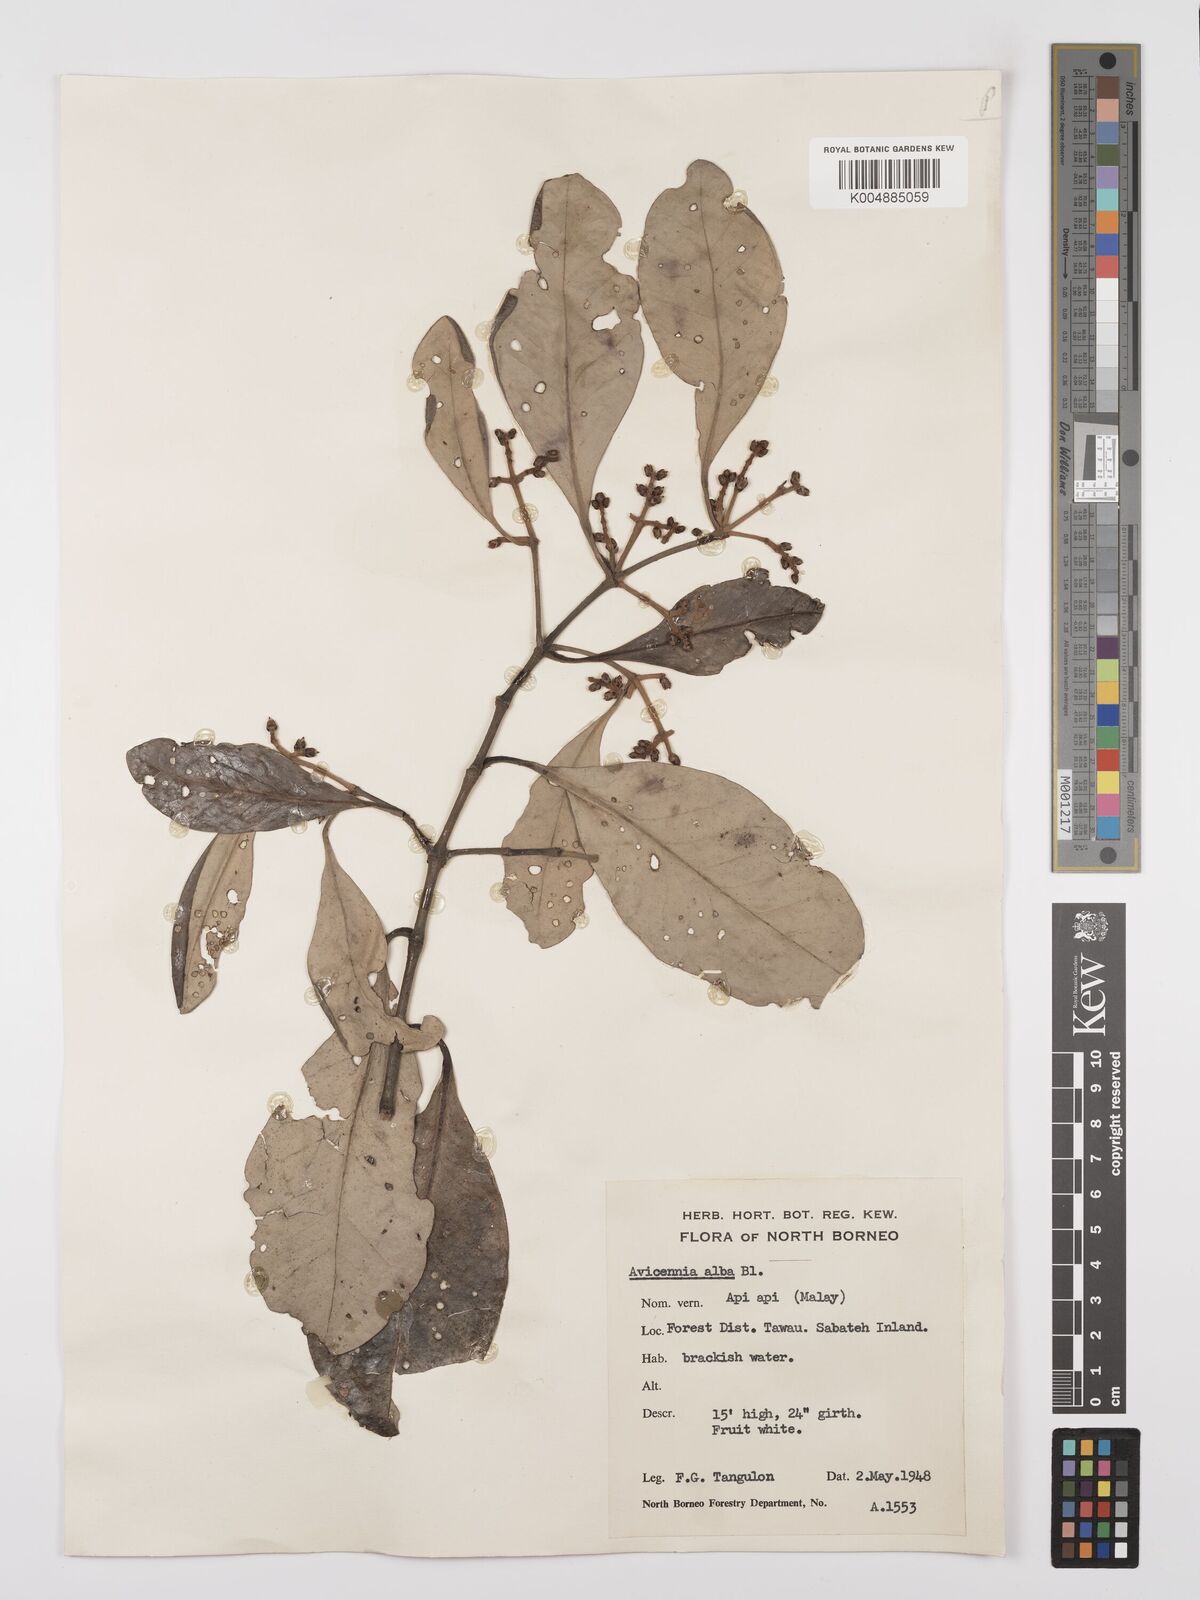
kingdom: Plantae
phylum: Tracheophyta
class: Magnoliopsida
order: Lamiales
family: Acanthaceae
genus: Avicennia
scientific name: Avicennia alba
